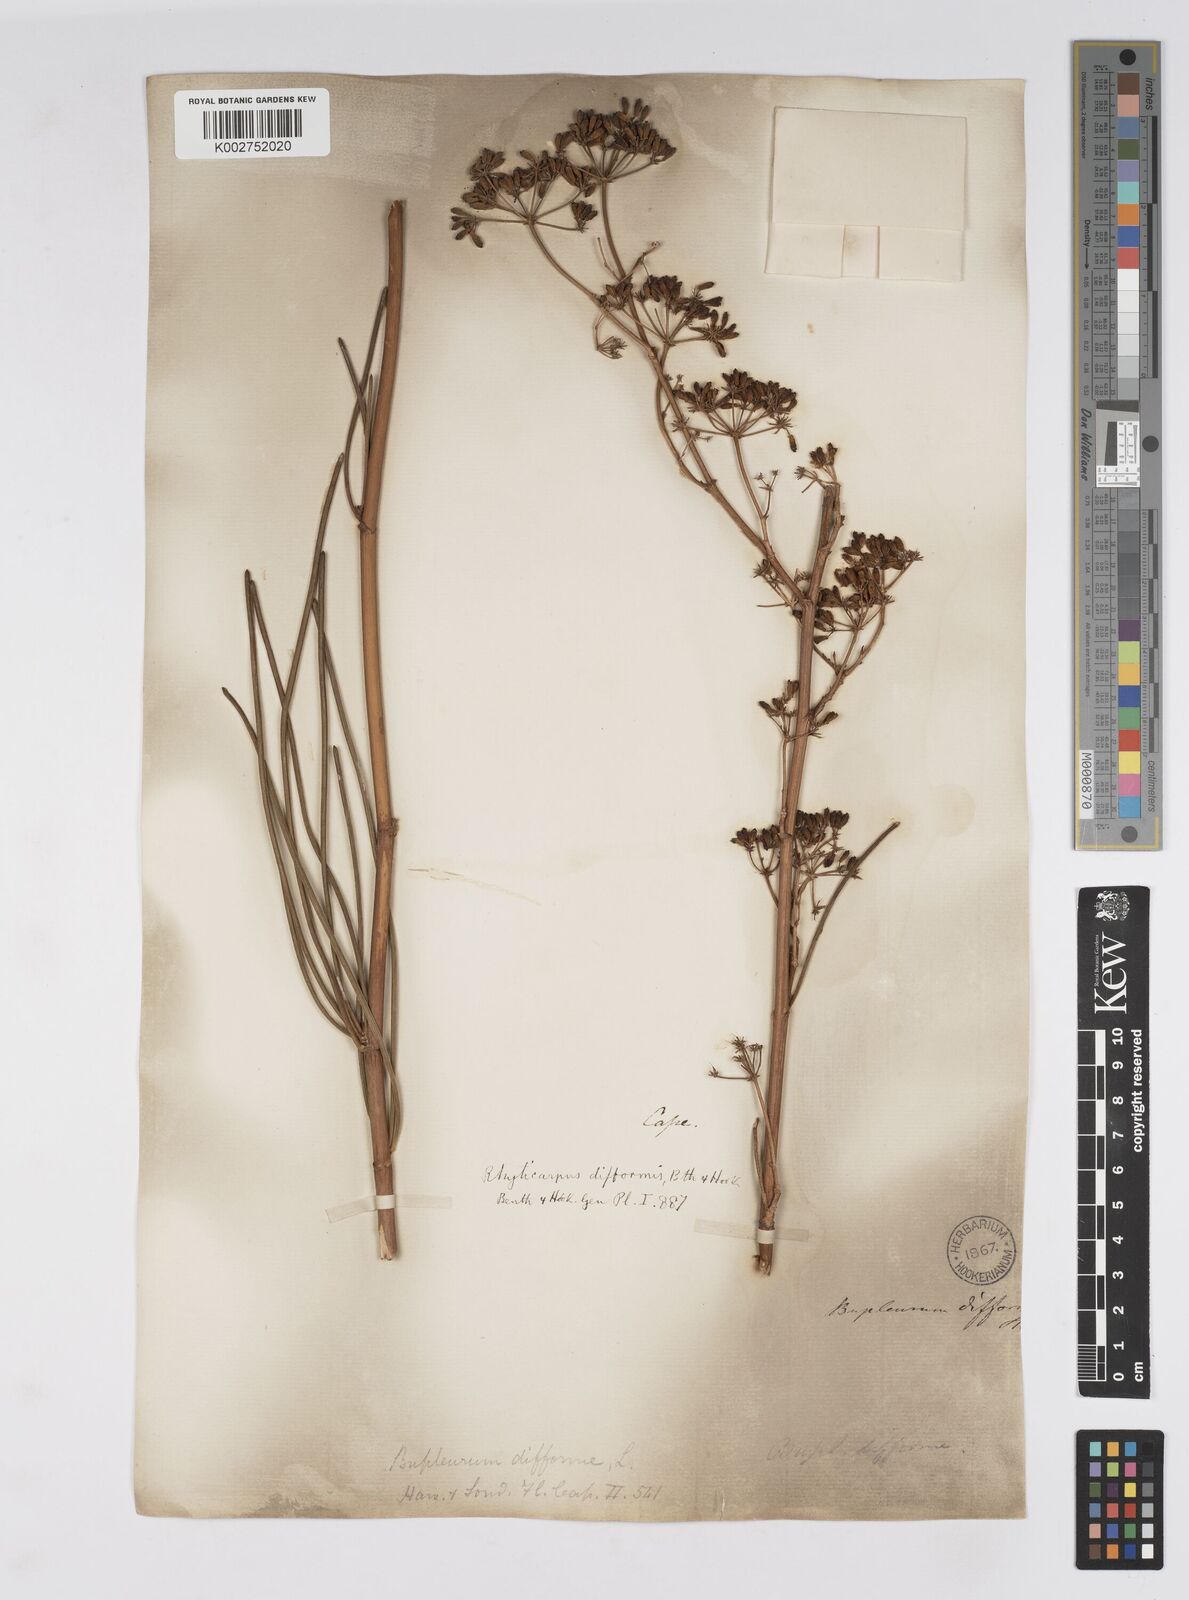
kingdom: Plantae
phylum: Tracheophyta
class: Magnoliopsida
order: Apiales
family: Apiaceae
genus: Anginon
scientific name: Anginon difforme
